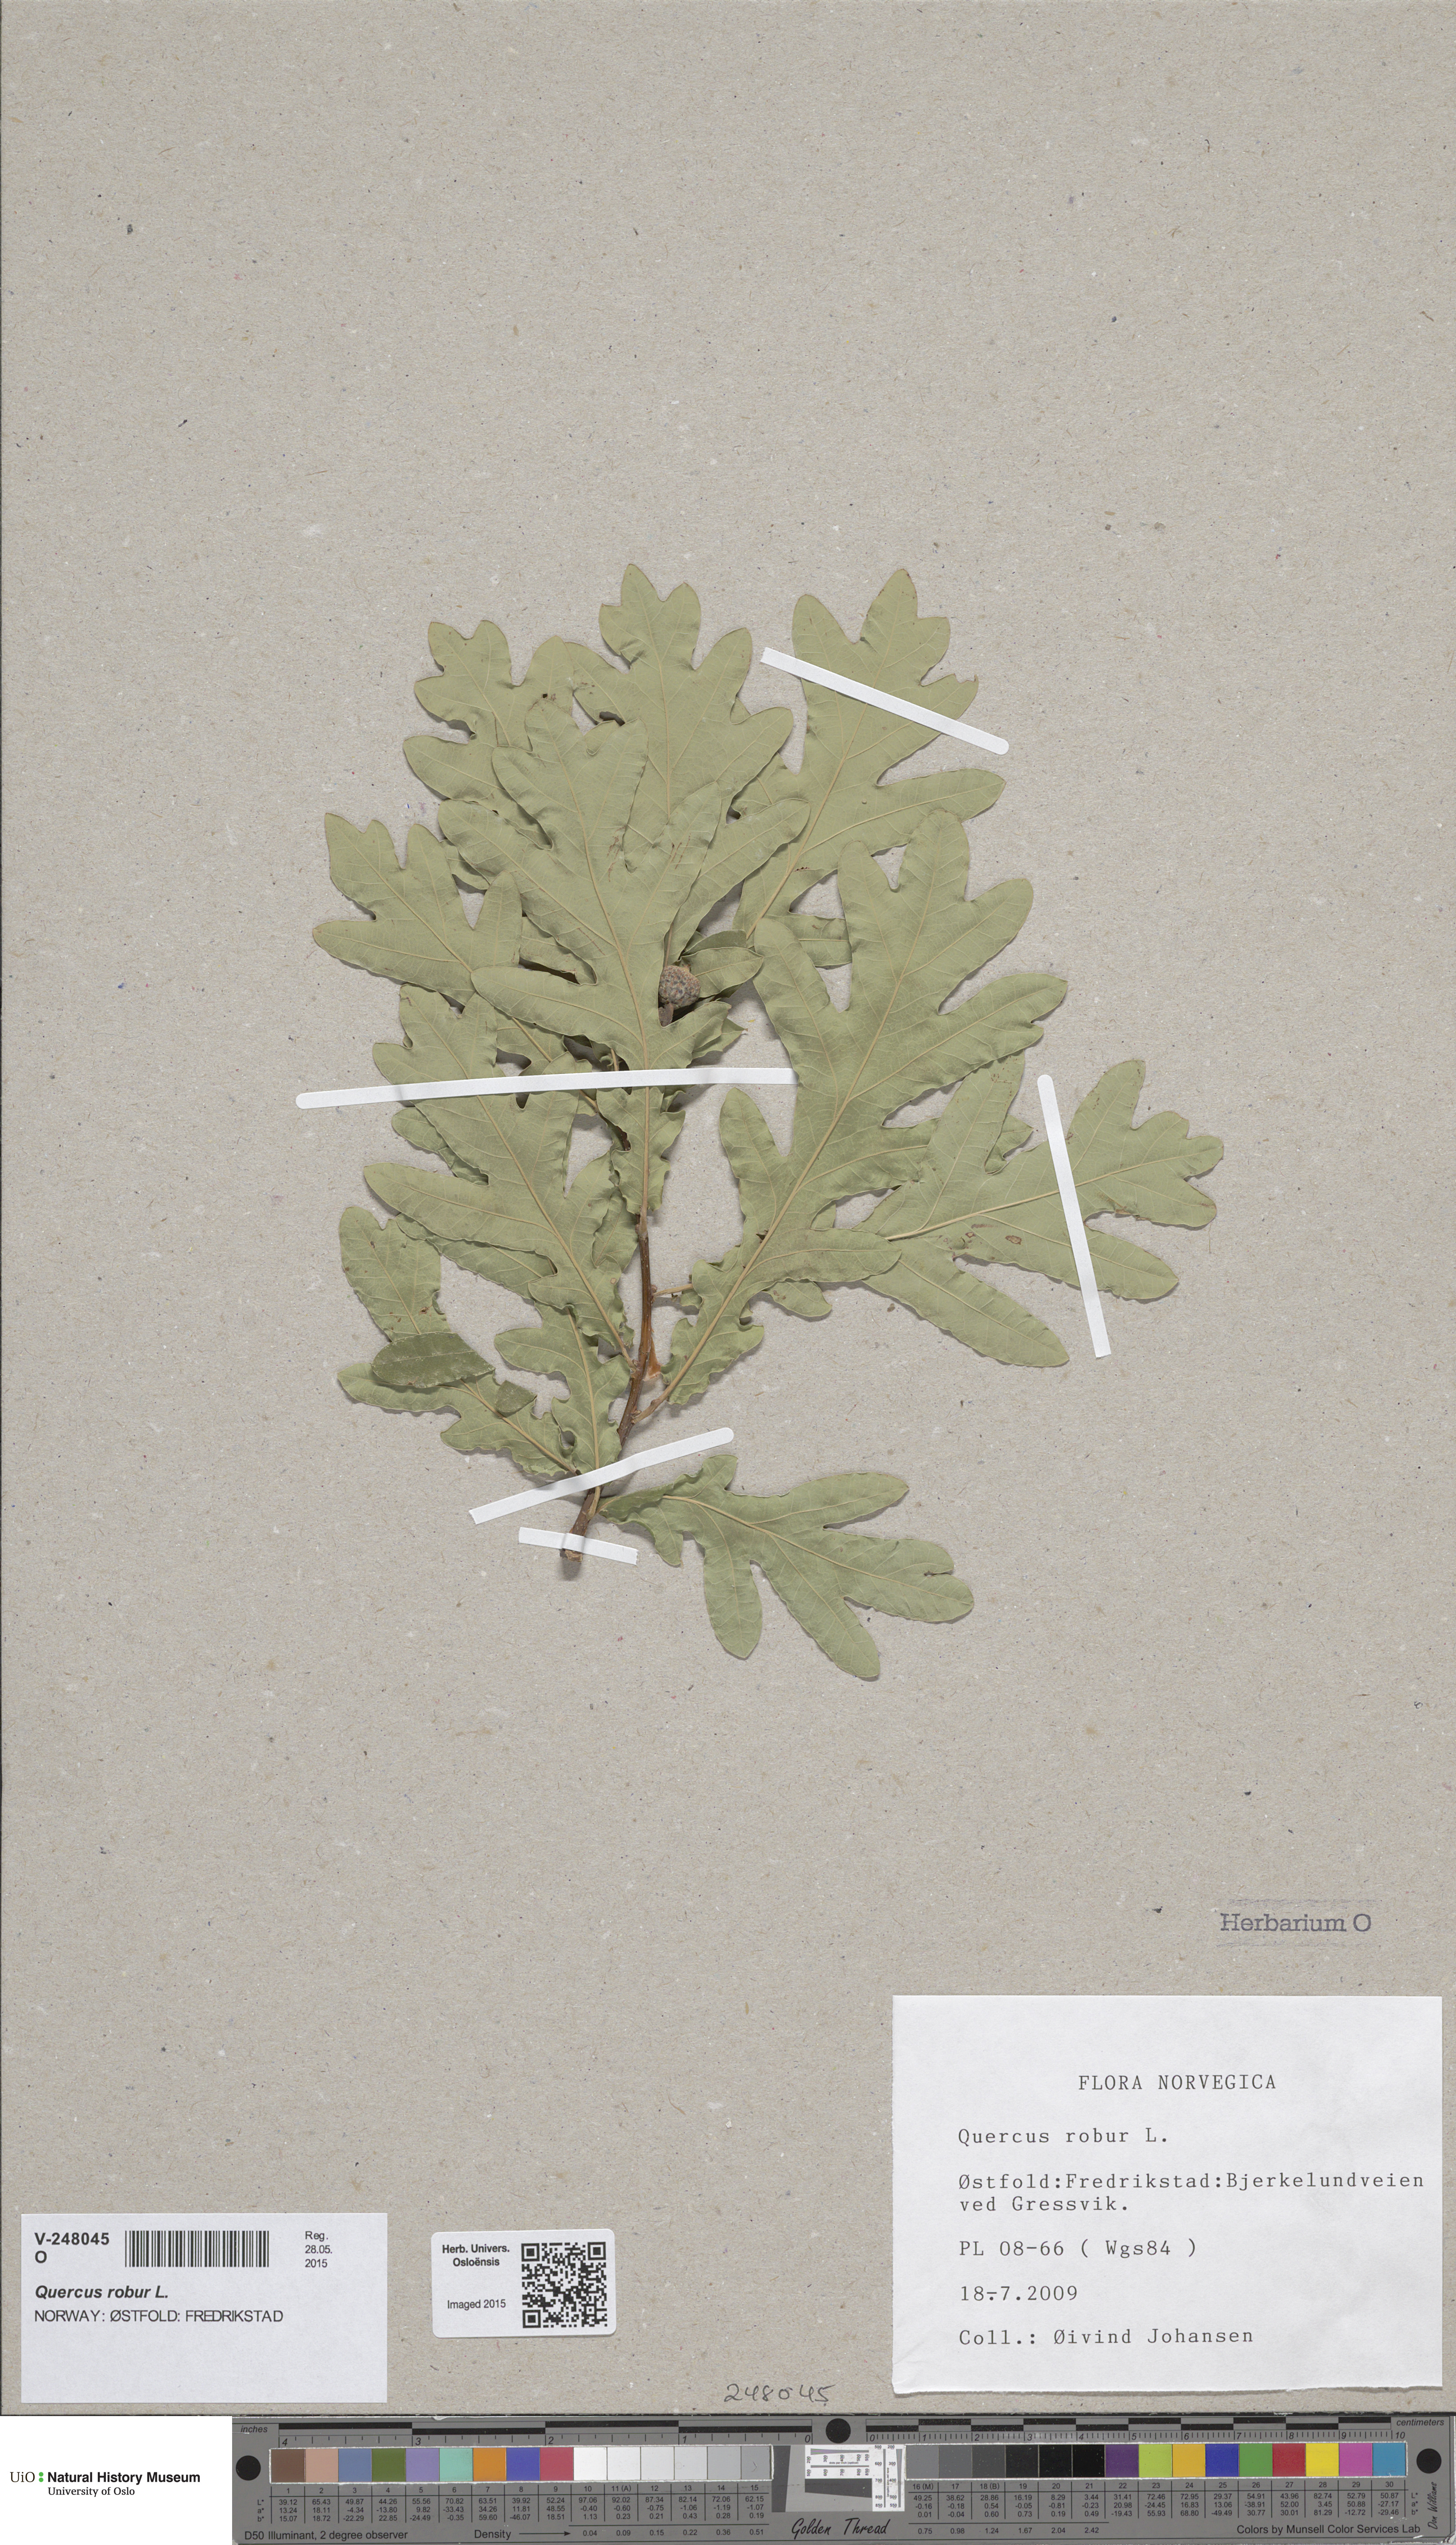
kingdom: Plantae
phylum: Tracheophyta
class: Magnoliopsida
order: Fagales
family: Fagaceae
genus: Quercus
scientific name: Quercus robur
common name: Pedunculate oak
